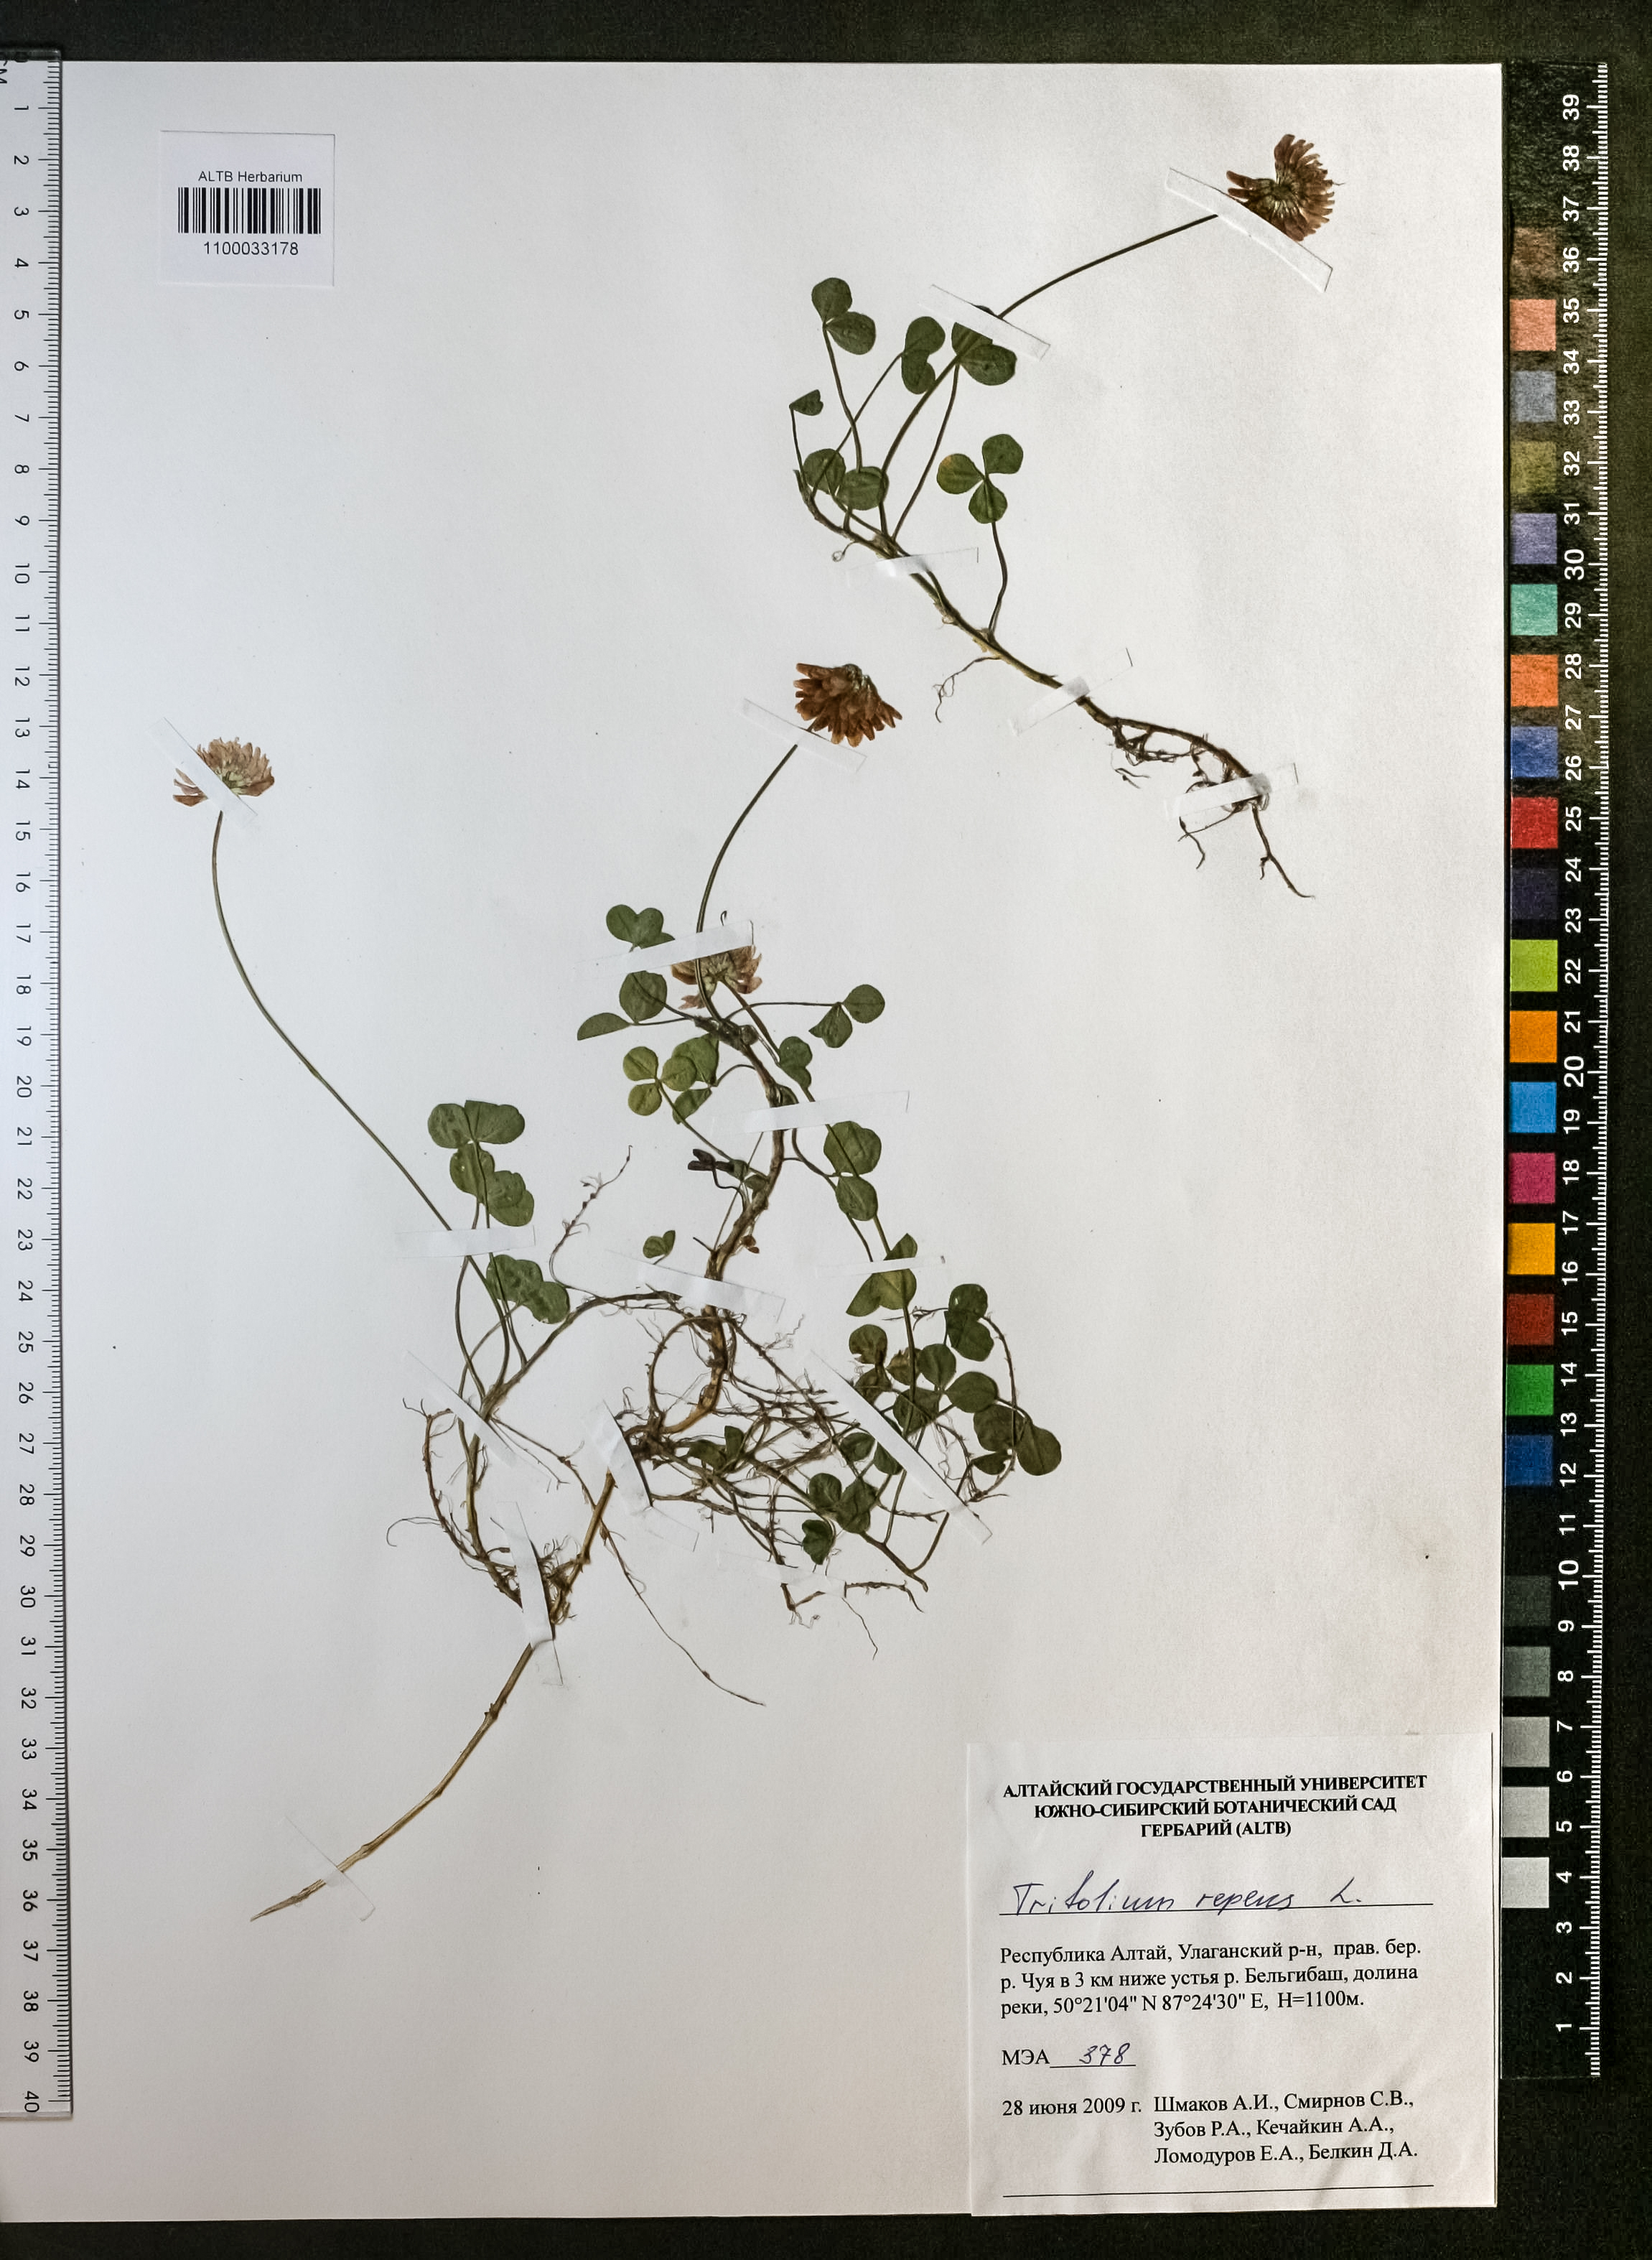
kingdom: Plantae
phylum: Tracheophyta
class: Magnoliopsida
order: Fabales
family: Fabaceae
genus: Trifolium
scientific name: Trifolium repens
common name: White clover
